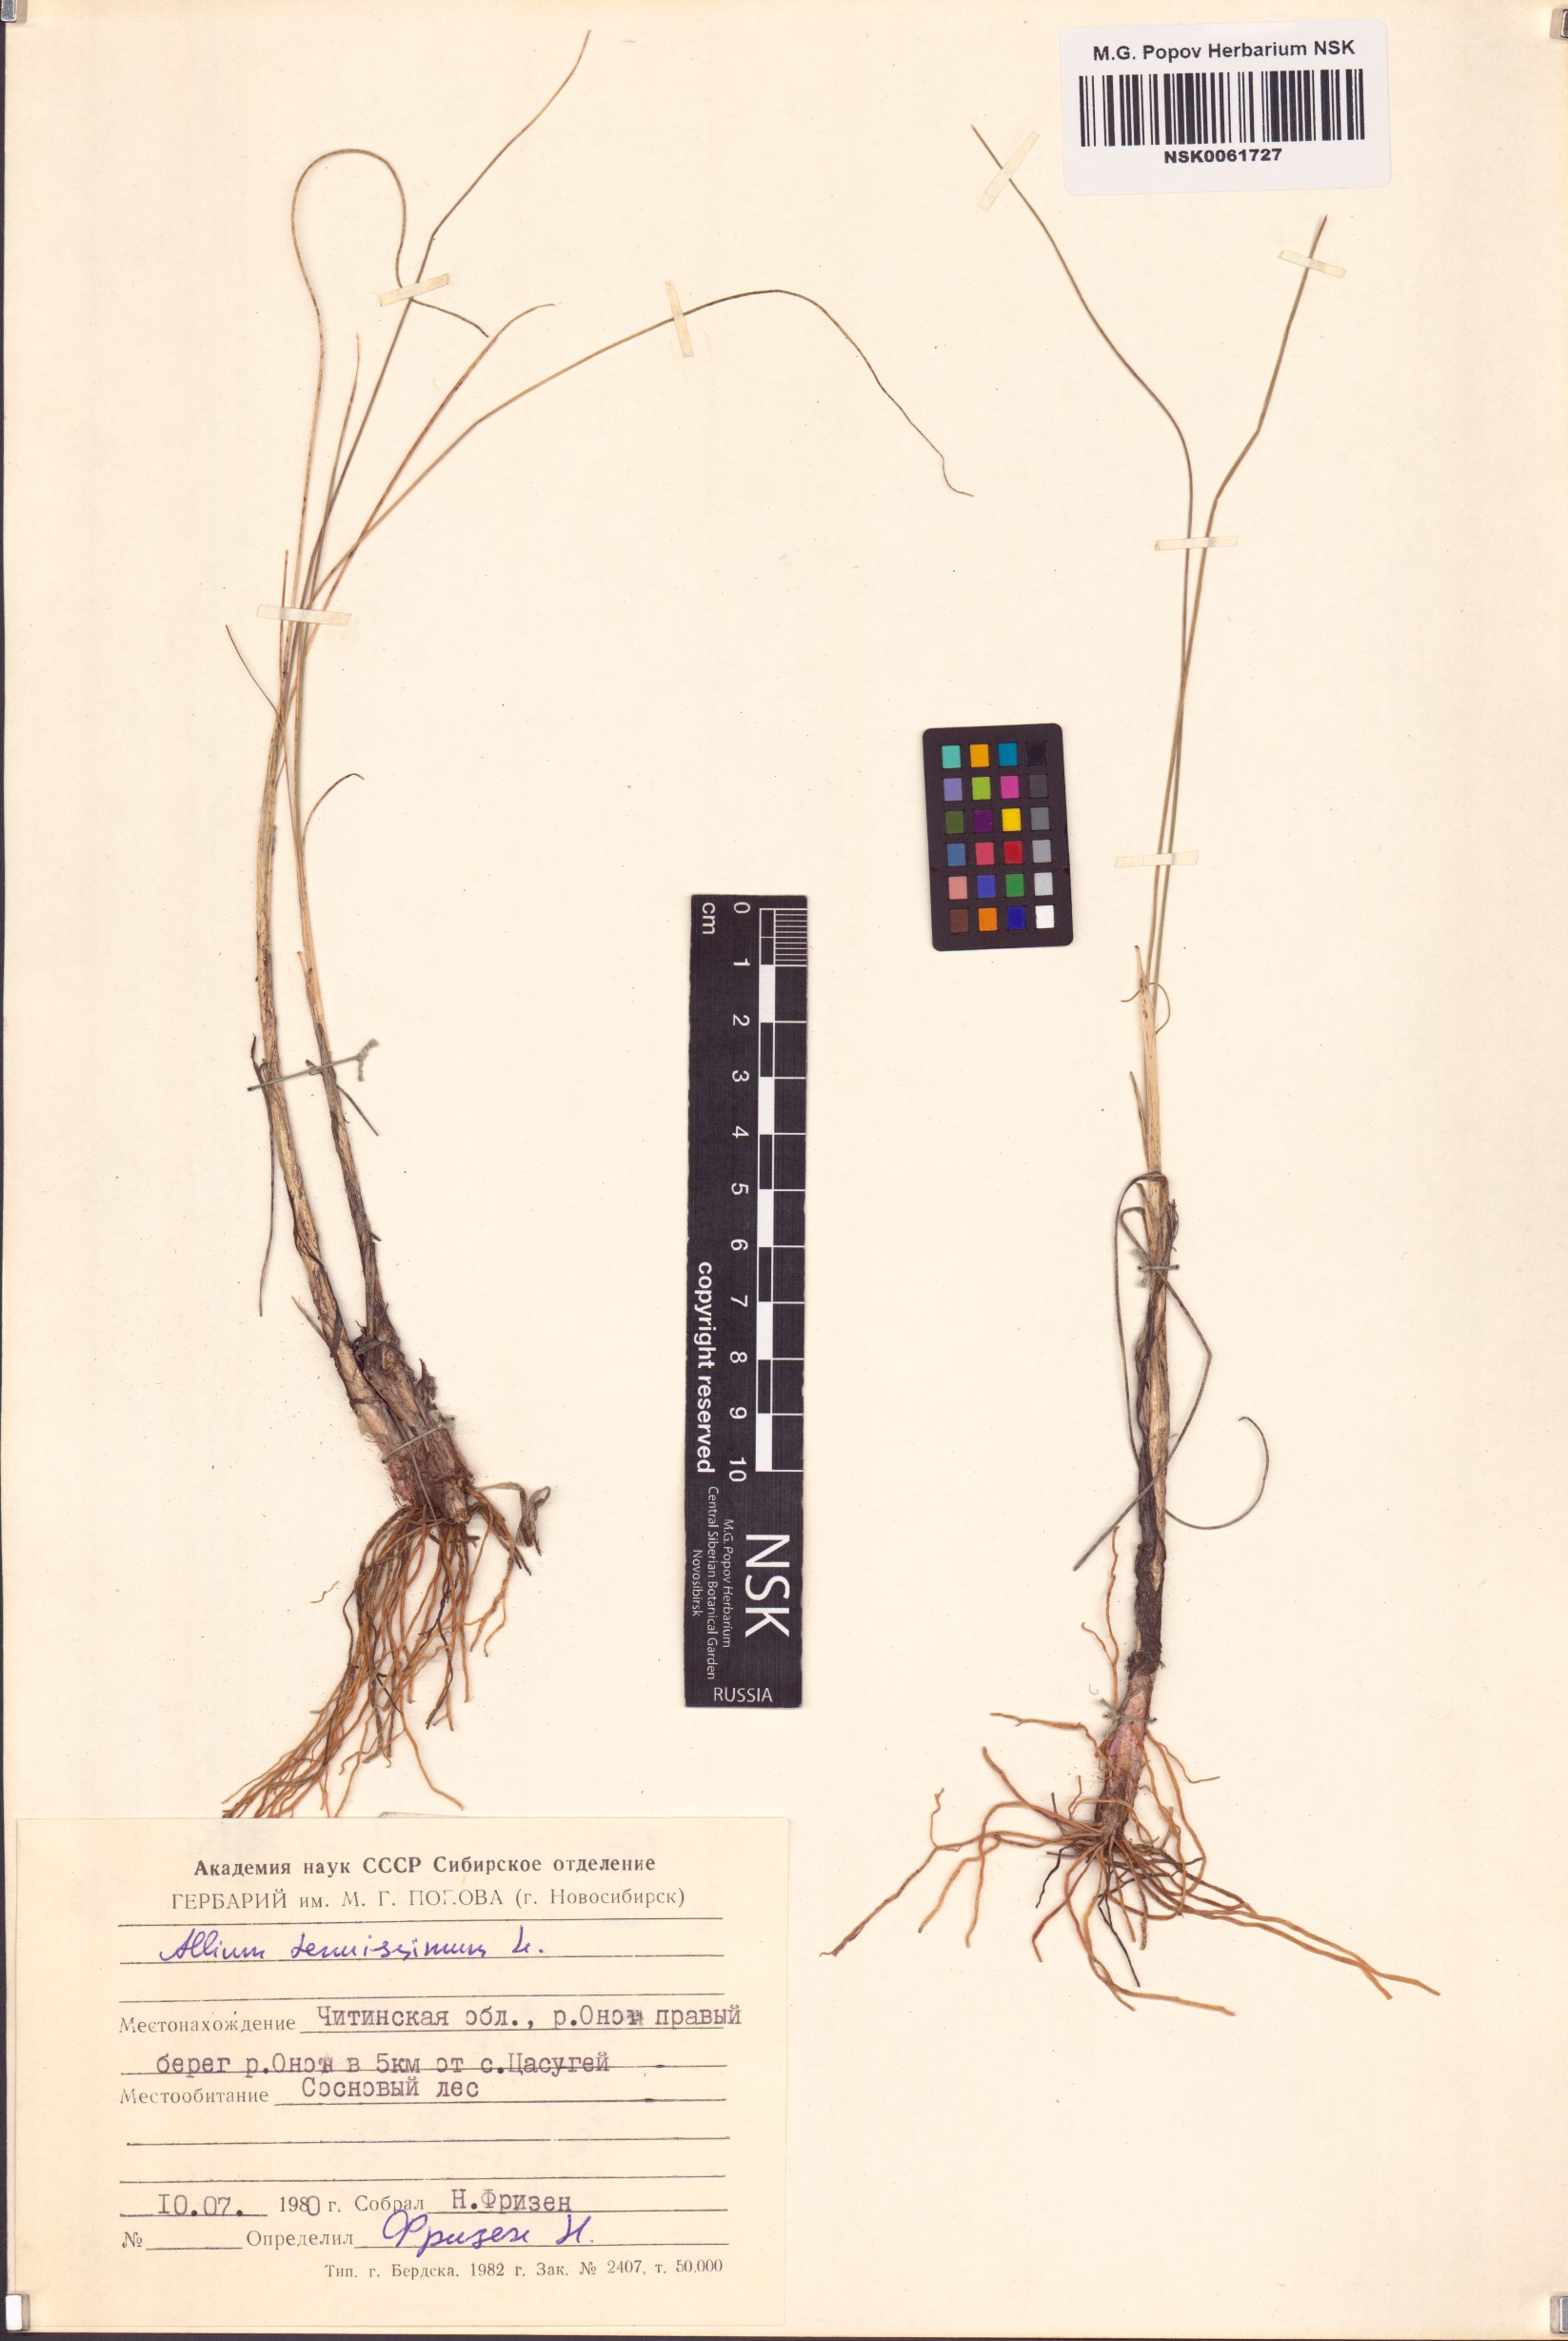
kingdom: Plantae
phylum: Tracheophyta
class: Liliopsida
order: Asparagales
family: Amaryllidaceae
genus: Allium
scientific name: Allium tenuissimum
